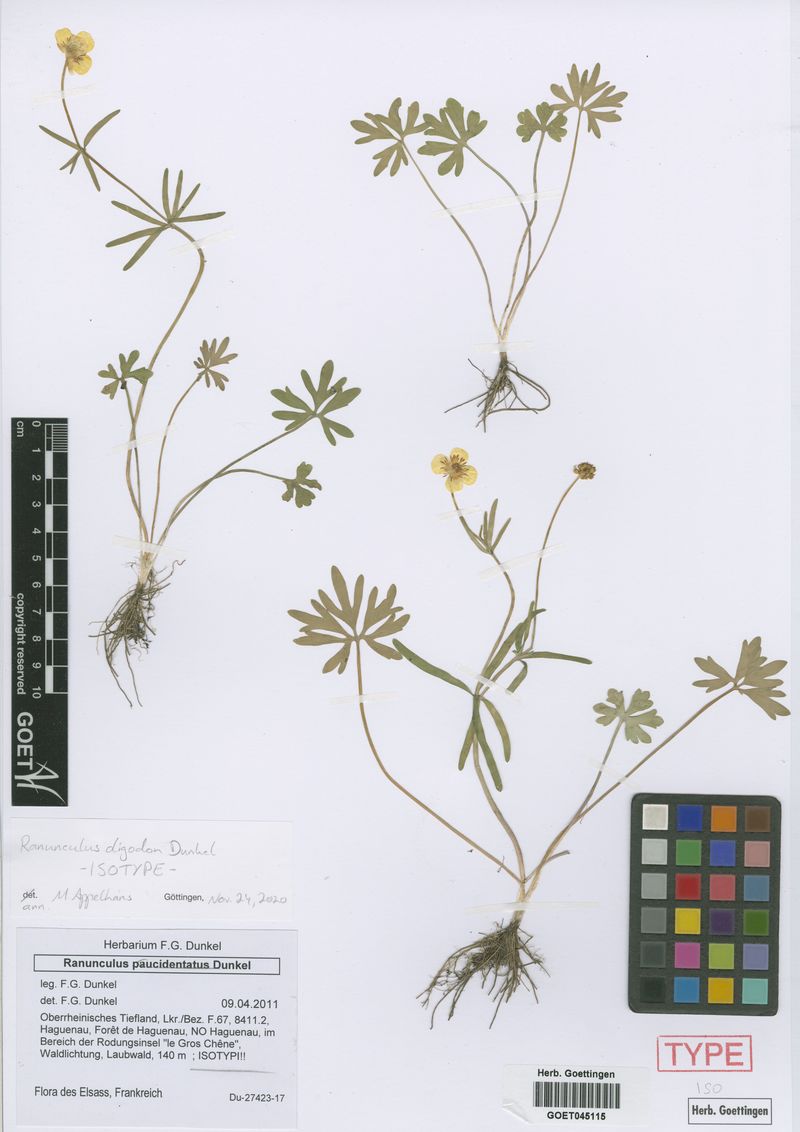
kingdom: Plantae
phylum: Tracheophyta
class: Magnoliopsida
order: Ranunculales
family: Ranunculaceae
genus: Ranunculus
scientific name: Ranunculus oligodon
